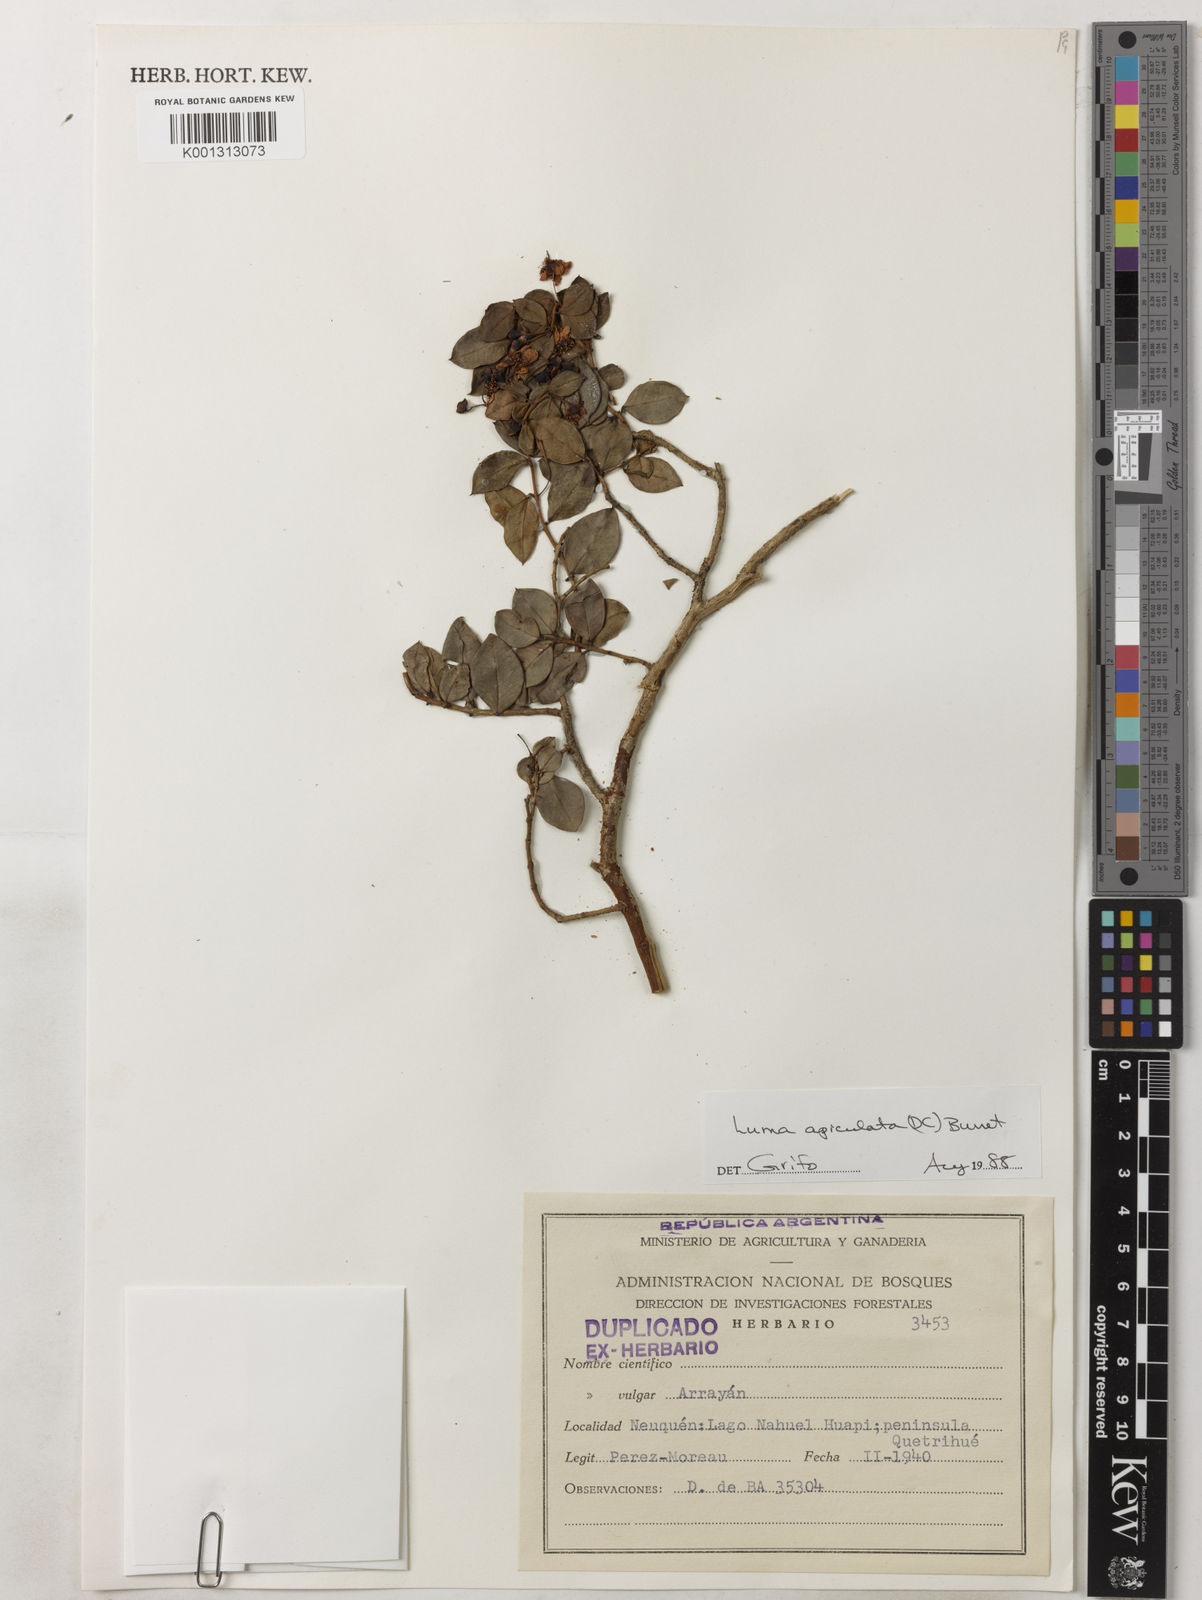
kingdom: Plantae
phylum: Tracheophyta
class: Magnoliopsida
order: Myrtales
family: Myrtaceae
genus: Luma
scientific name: Luma apiculata
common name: Chilean myrtle
